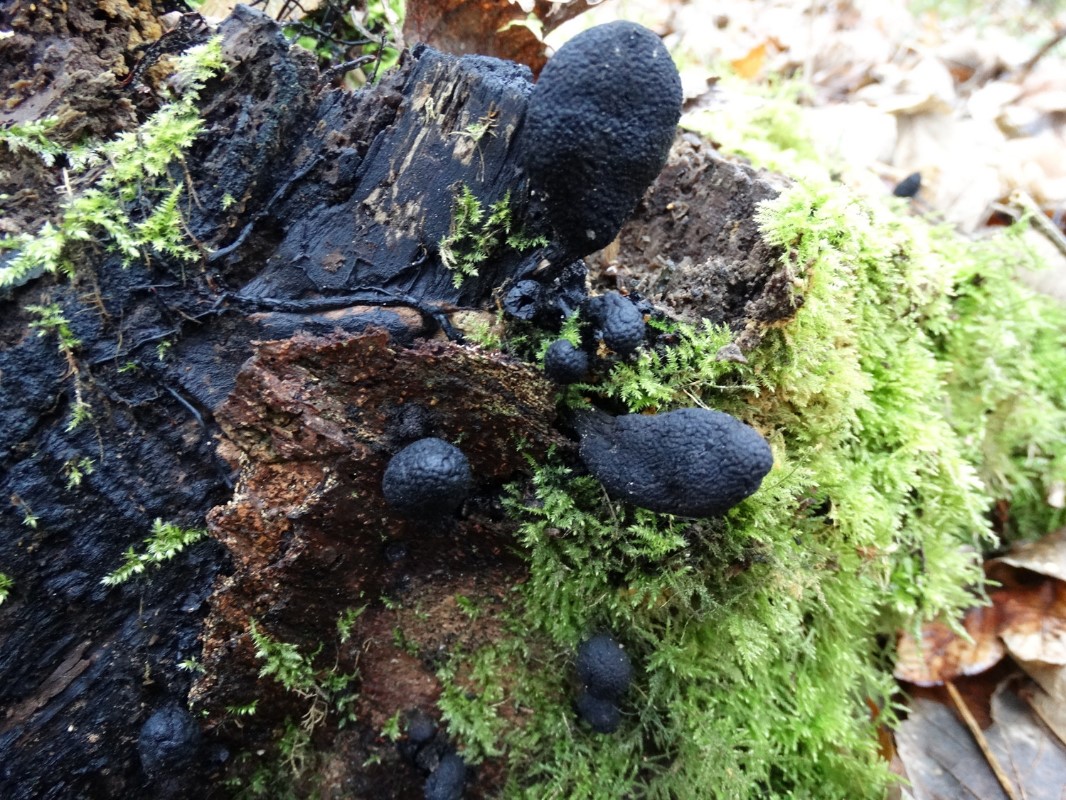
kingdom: Fungi
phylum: Ascomycota
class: Sordariomycetes
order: Xylariales
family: Xylariaceae
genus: Xylaria
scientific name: Xylaria polymorpha
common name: kølle-stødsvamp
